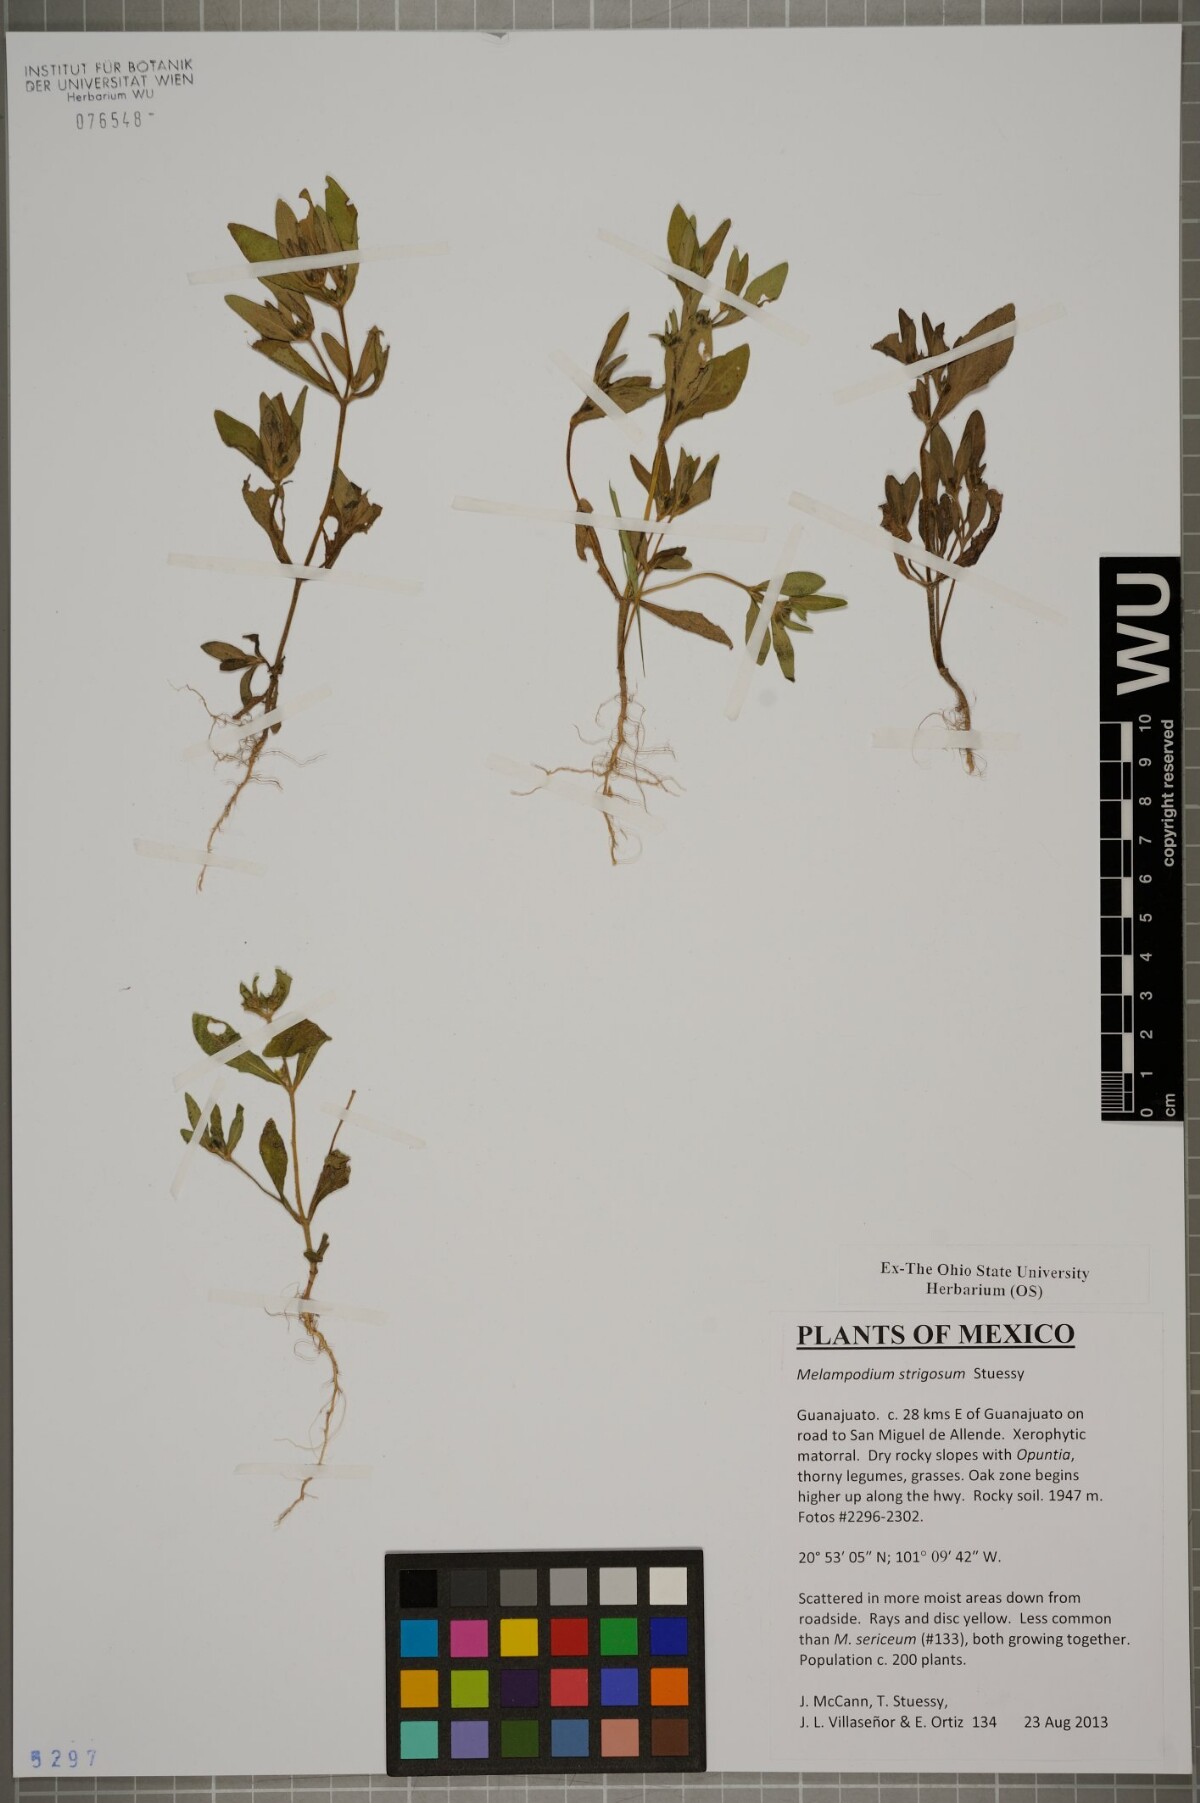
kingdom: Plantae
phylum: Tracheophyta
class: Magnoliopsida
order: Asterales
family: Asteraceae
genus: Melampodium
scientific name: Melampodium strigosum
